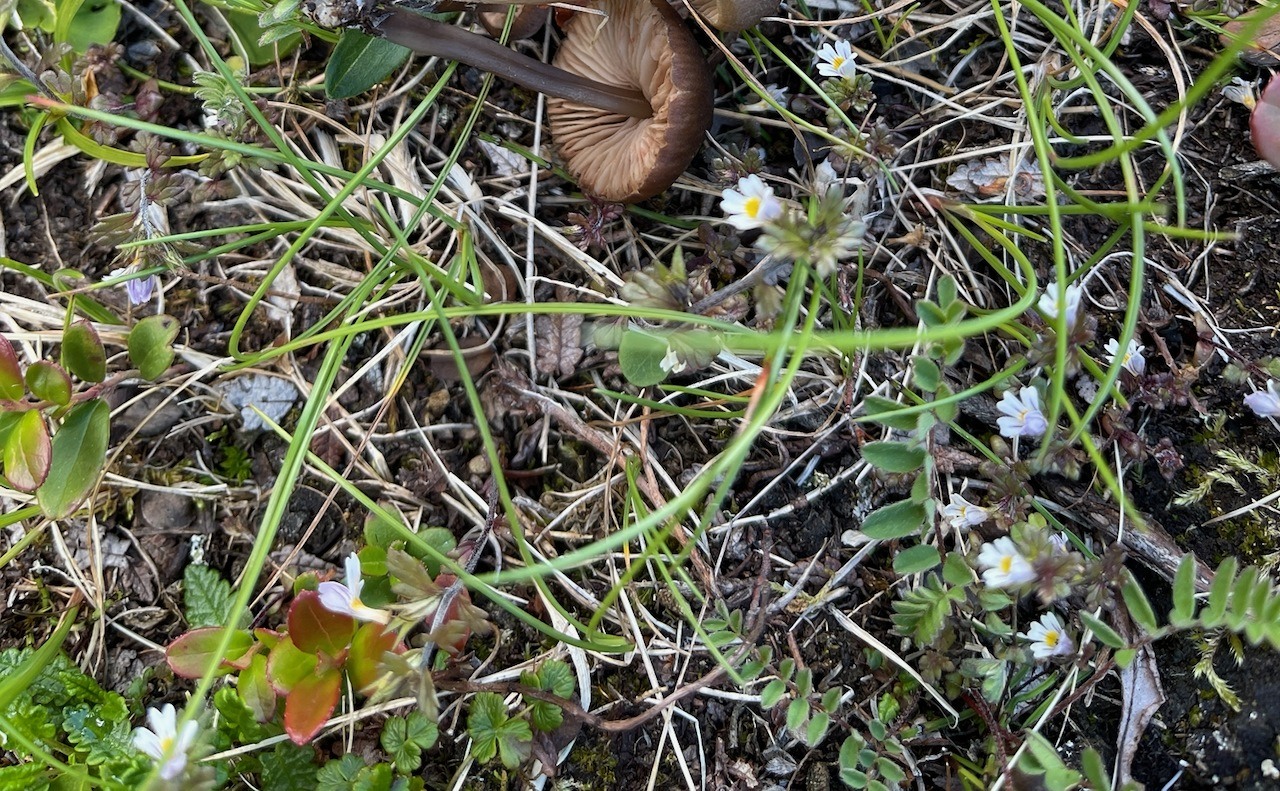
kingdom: Fungi
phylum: Basidiomycota
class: Agaricomycetes
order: Agaricales
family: Entolomataceae
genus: Entoloma
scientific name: Entoloma minutigranulosum
